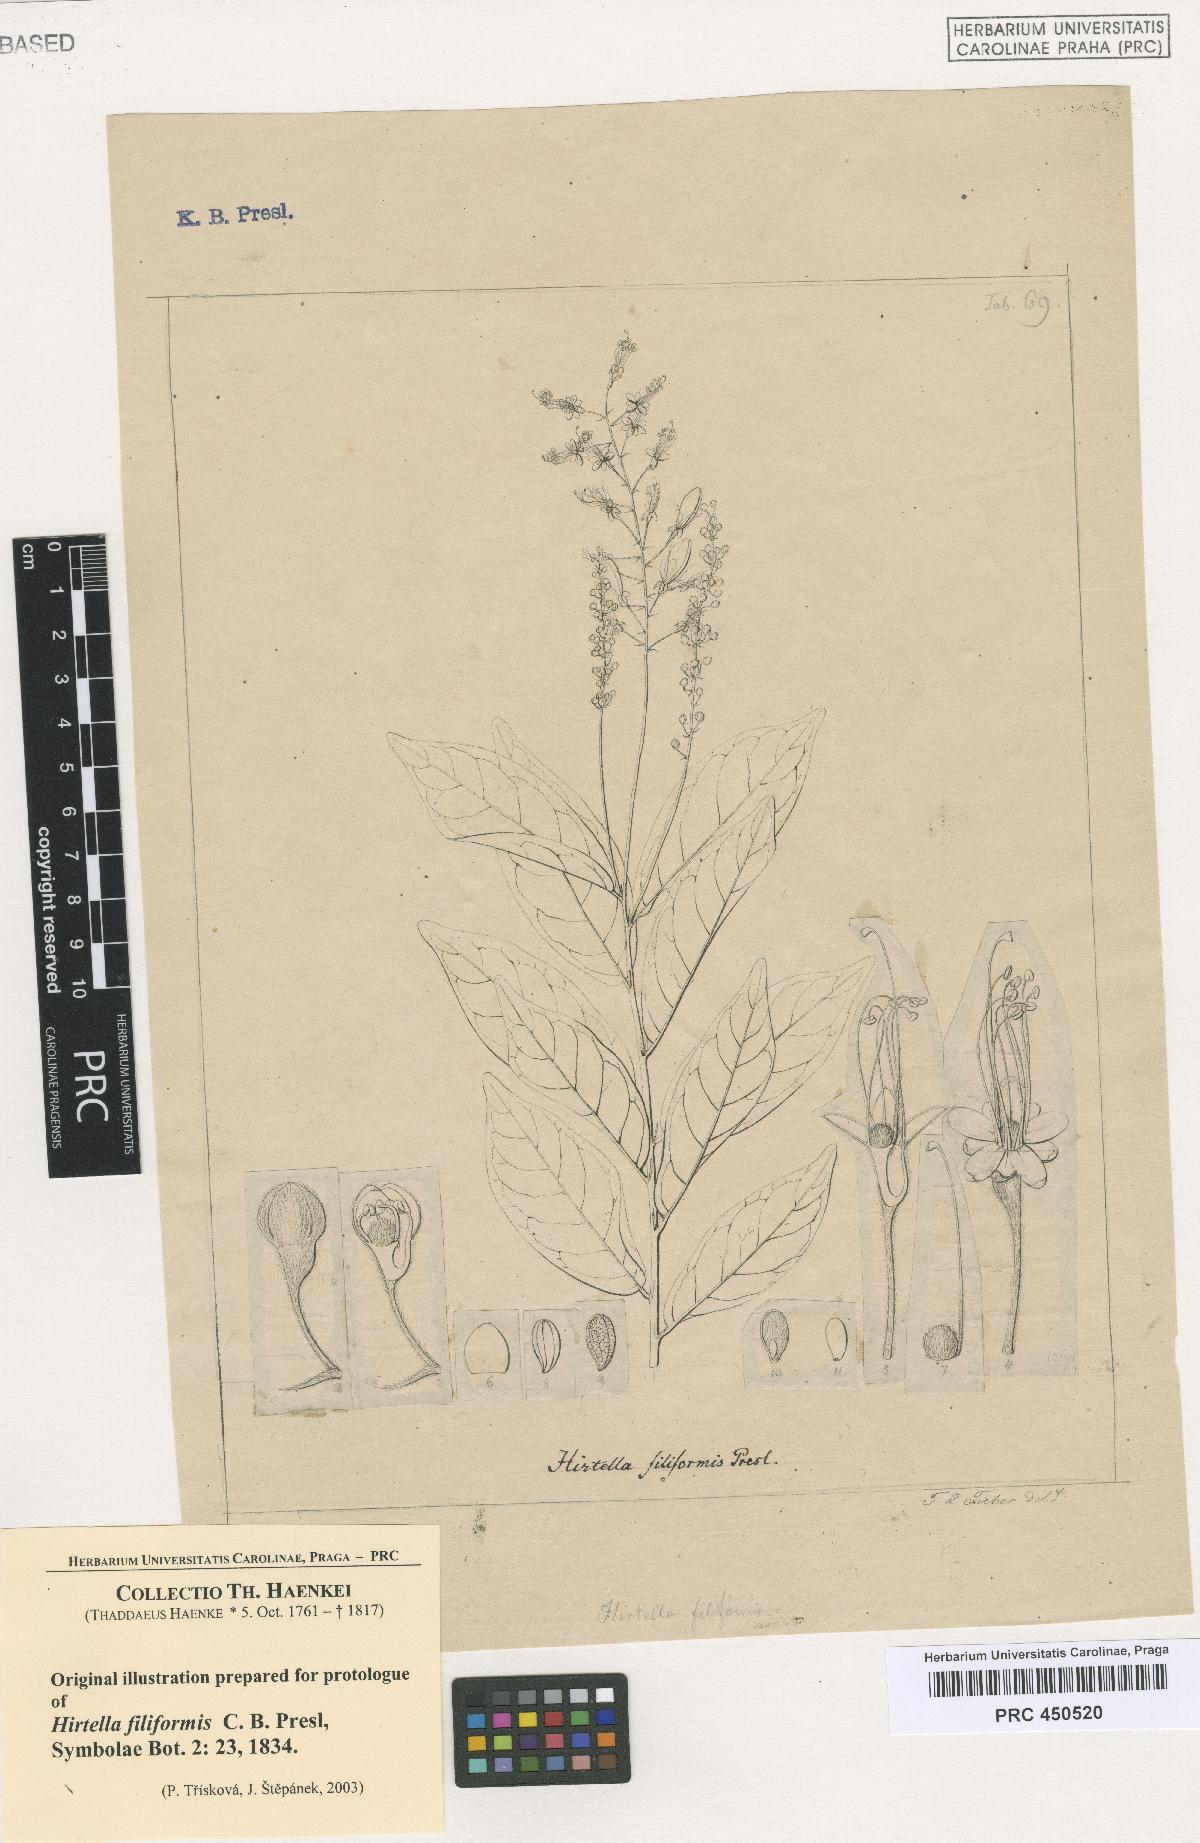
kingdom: Plantae
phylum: Tracheophyta
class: Magnoliopsida
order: Malpighiales
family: Chrysobalanaceae
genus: Hirtella
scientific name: Hirtella racemosa
